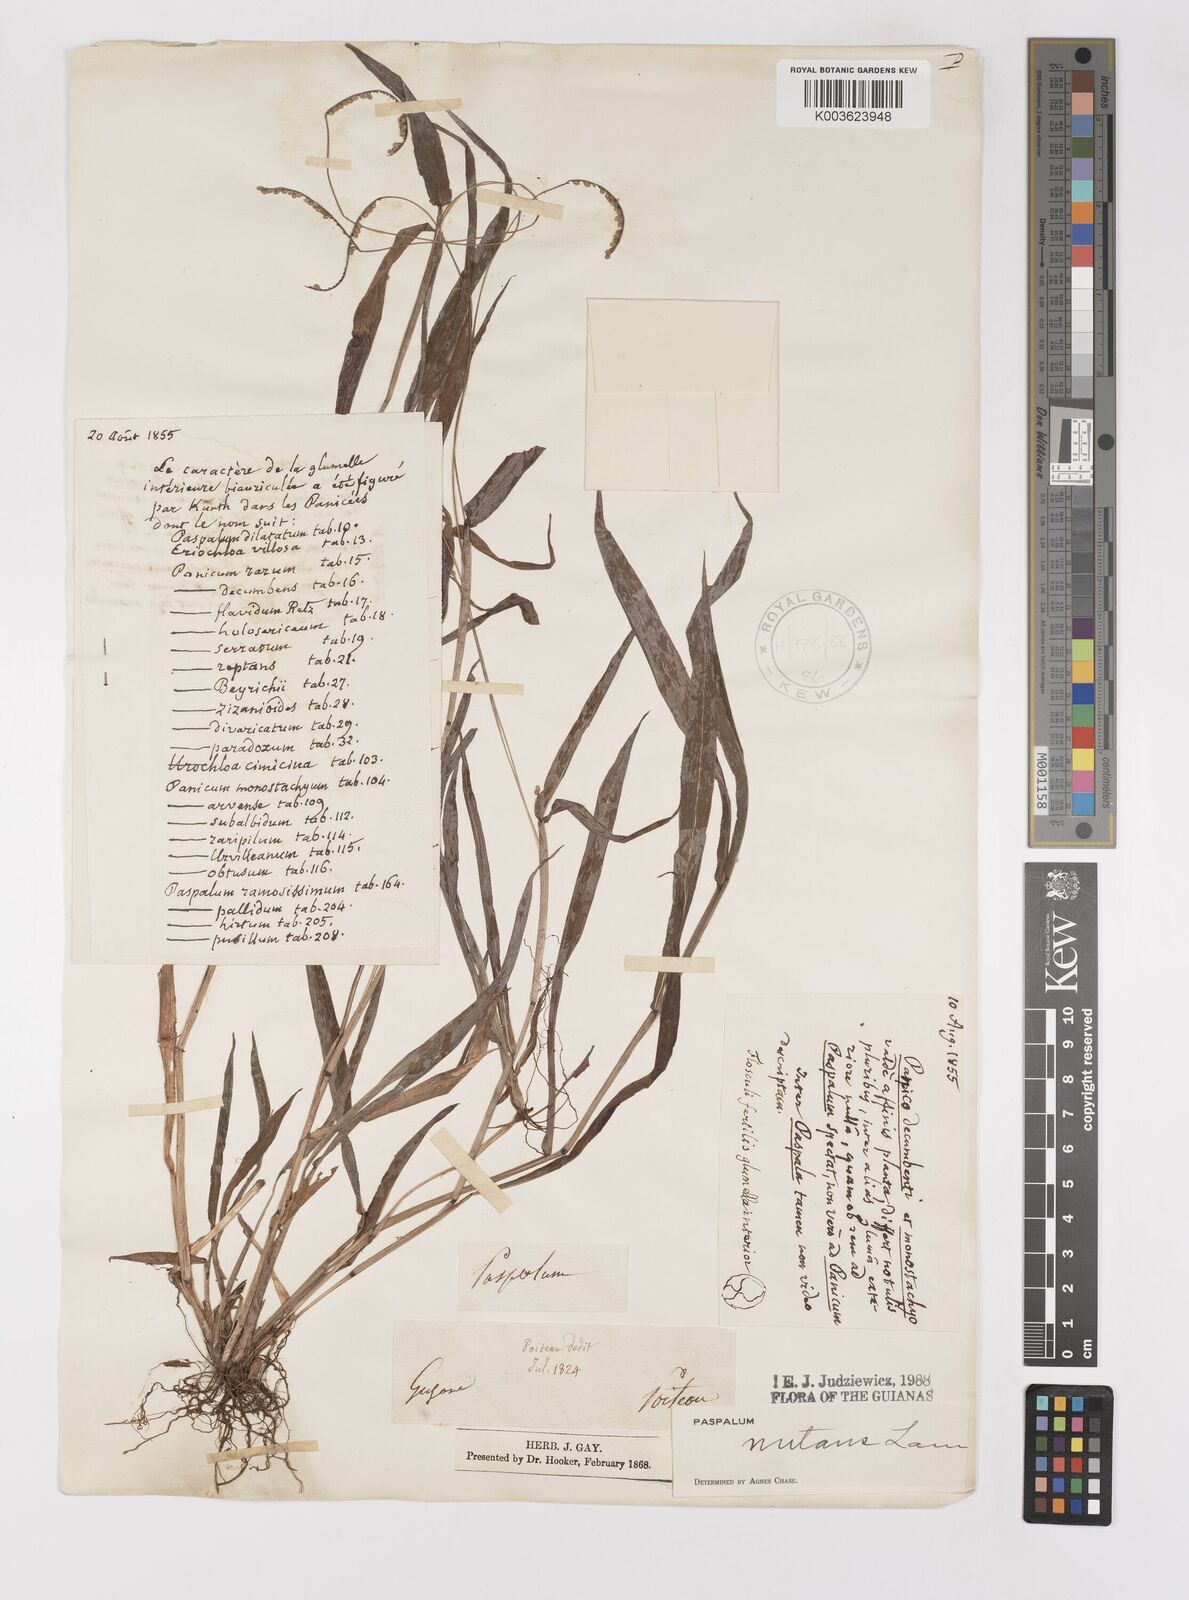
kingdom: Plantae
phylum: Tracheophyta
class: Liliopsida
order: Poales
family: Poaceae
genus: Paspalum
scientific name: Paspalum nutans
